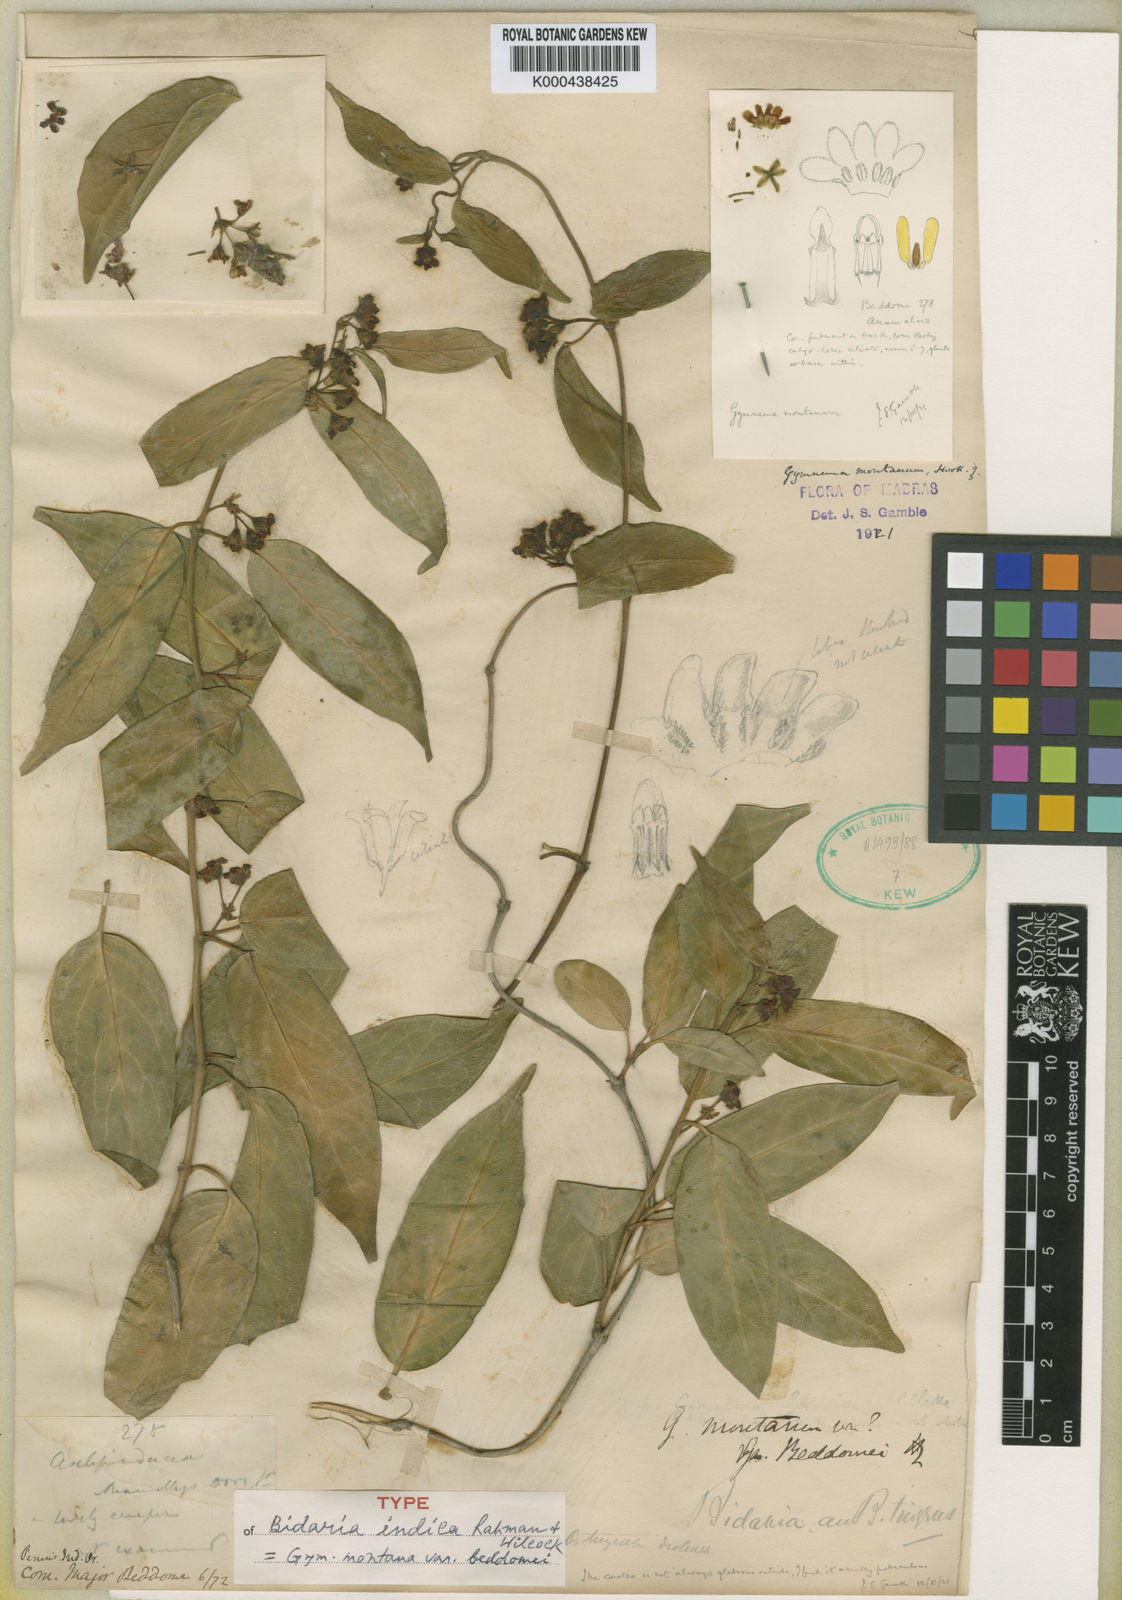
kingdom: Plantae
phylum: Tracheophyta
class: Magnoliopsida
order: Gentianales
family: Apocynaceae
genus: Gymnema
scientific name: Gymnema montanum
